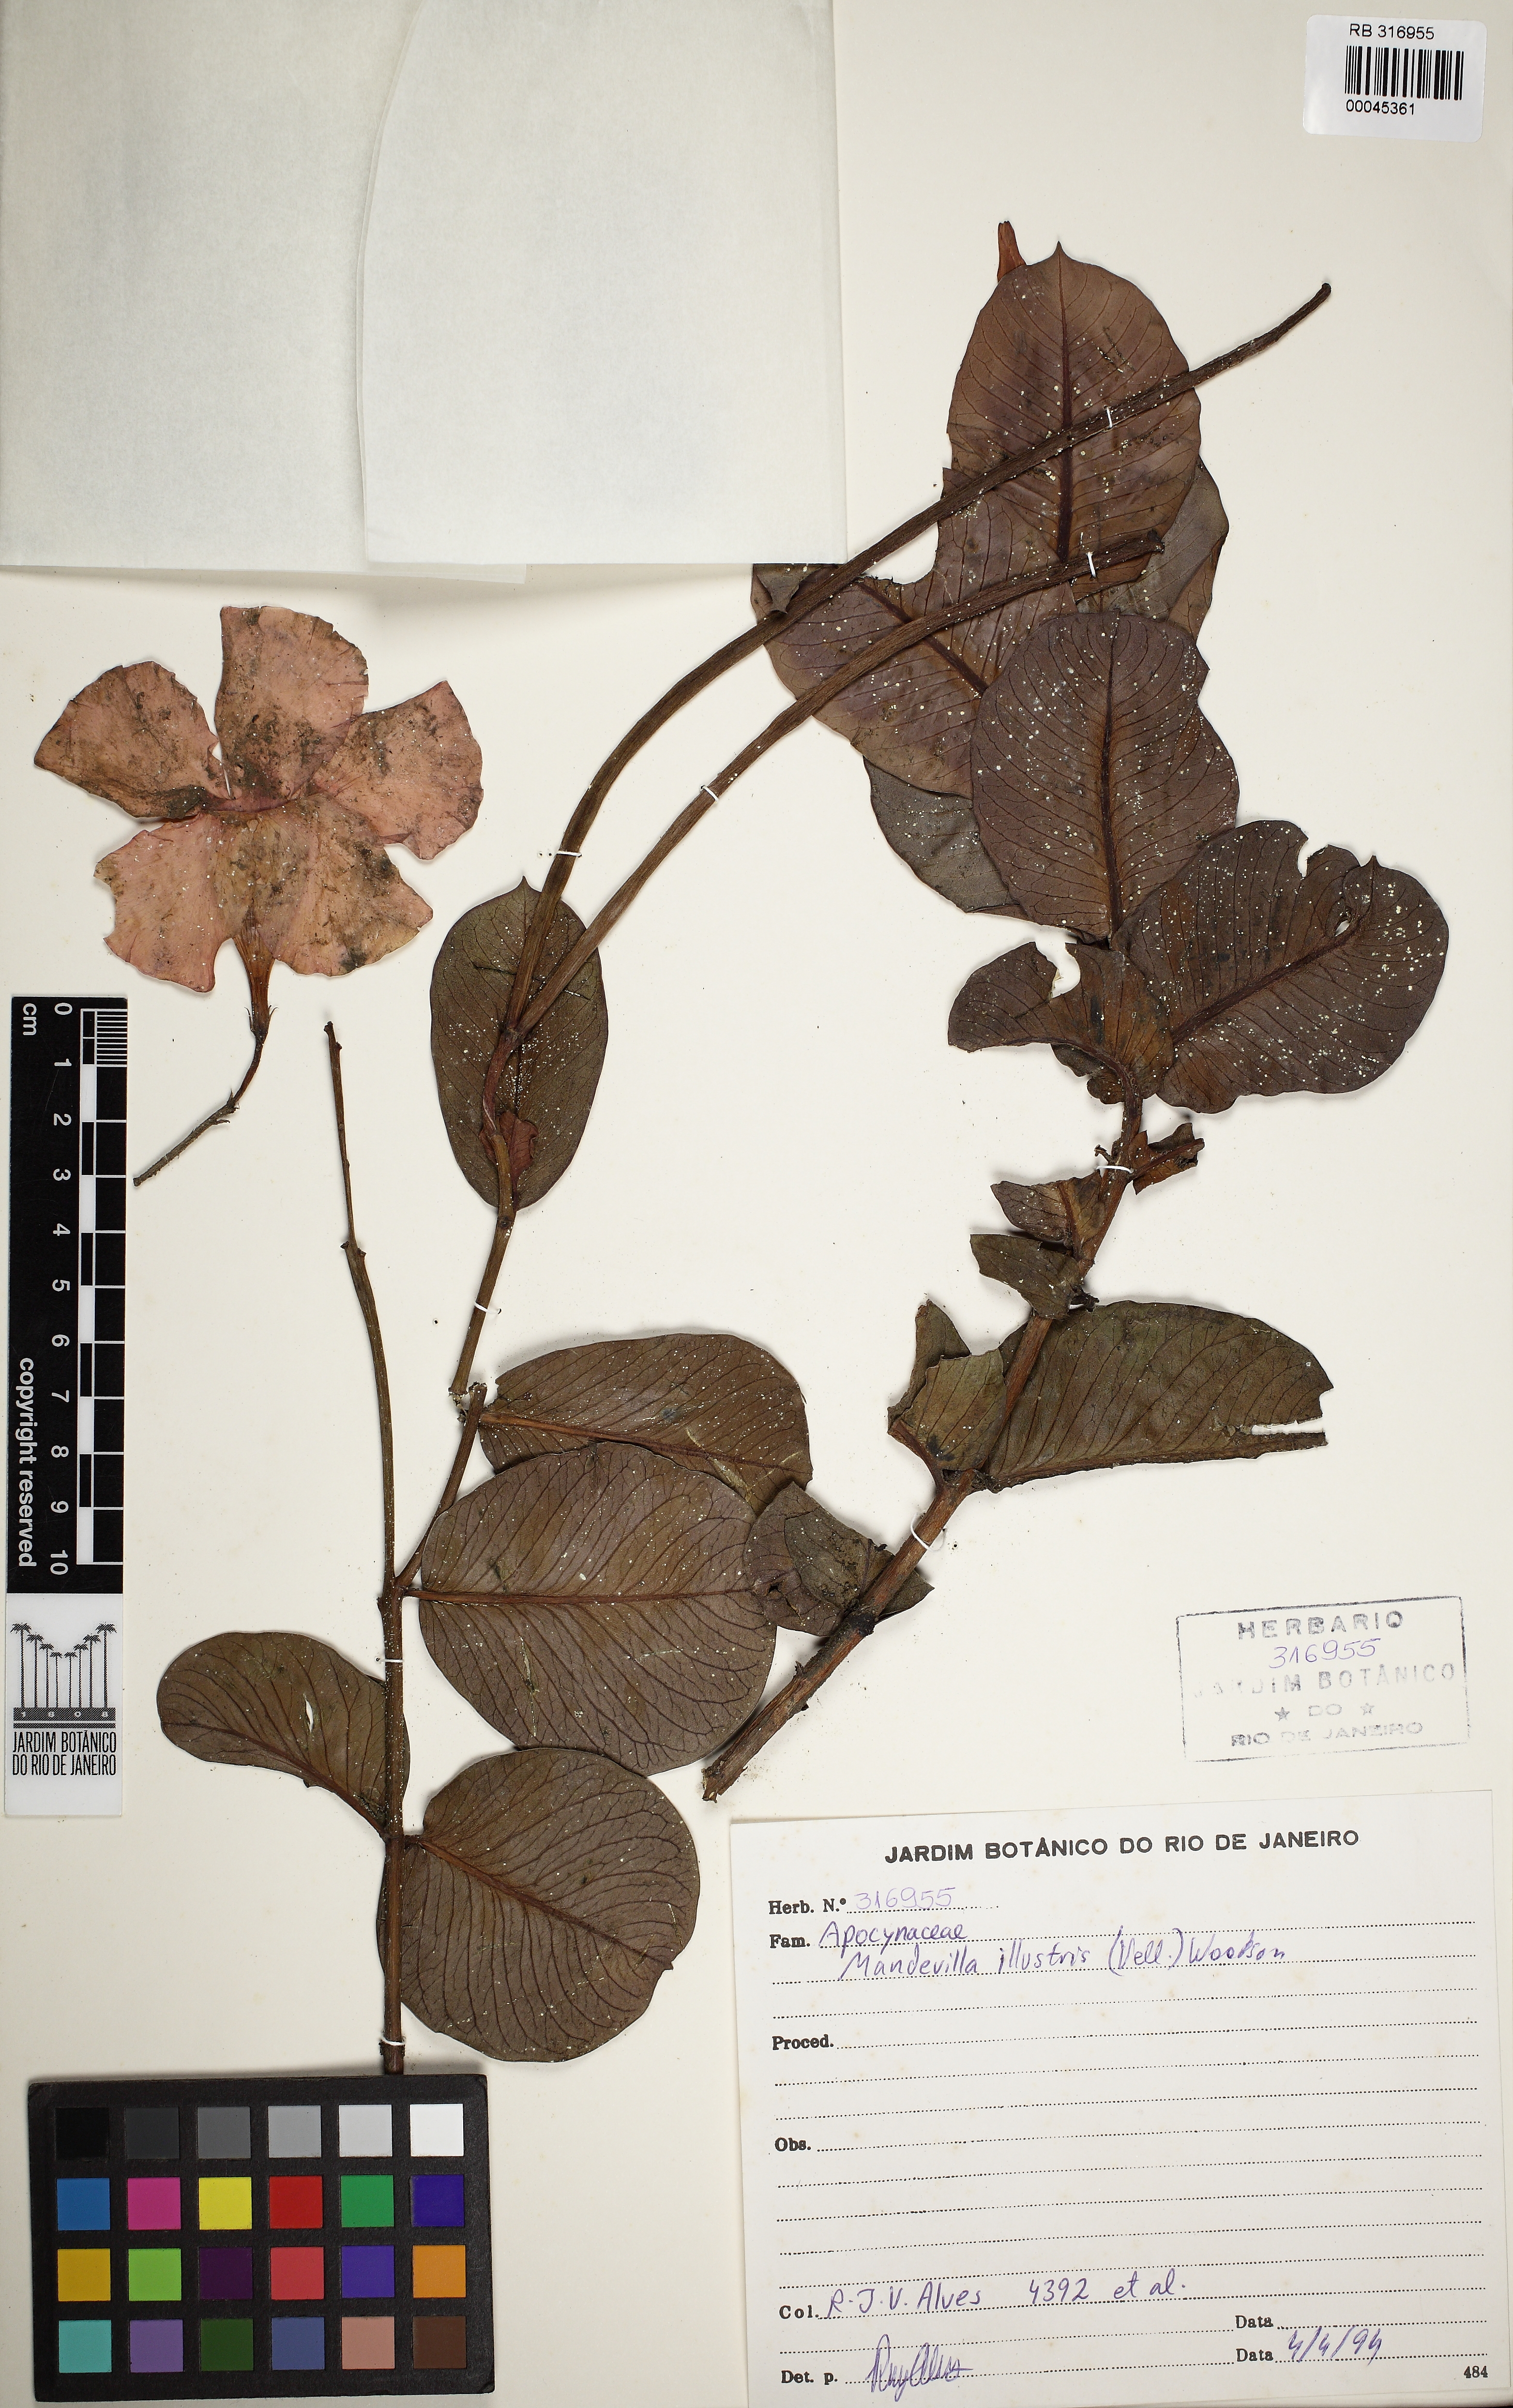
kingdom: Plantae
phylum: Tracheophyta
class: Magnoliopsida
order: Gentianales
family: Apocynaceae
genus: Mandevilla
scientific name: Mandevilla illustris
